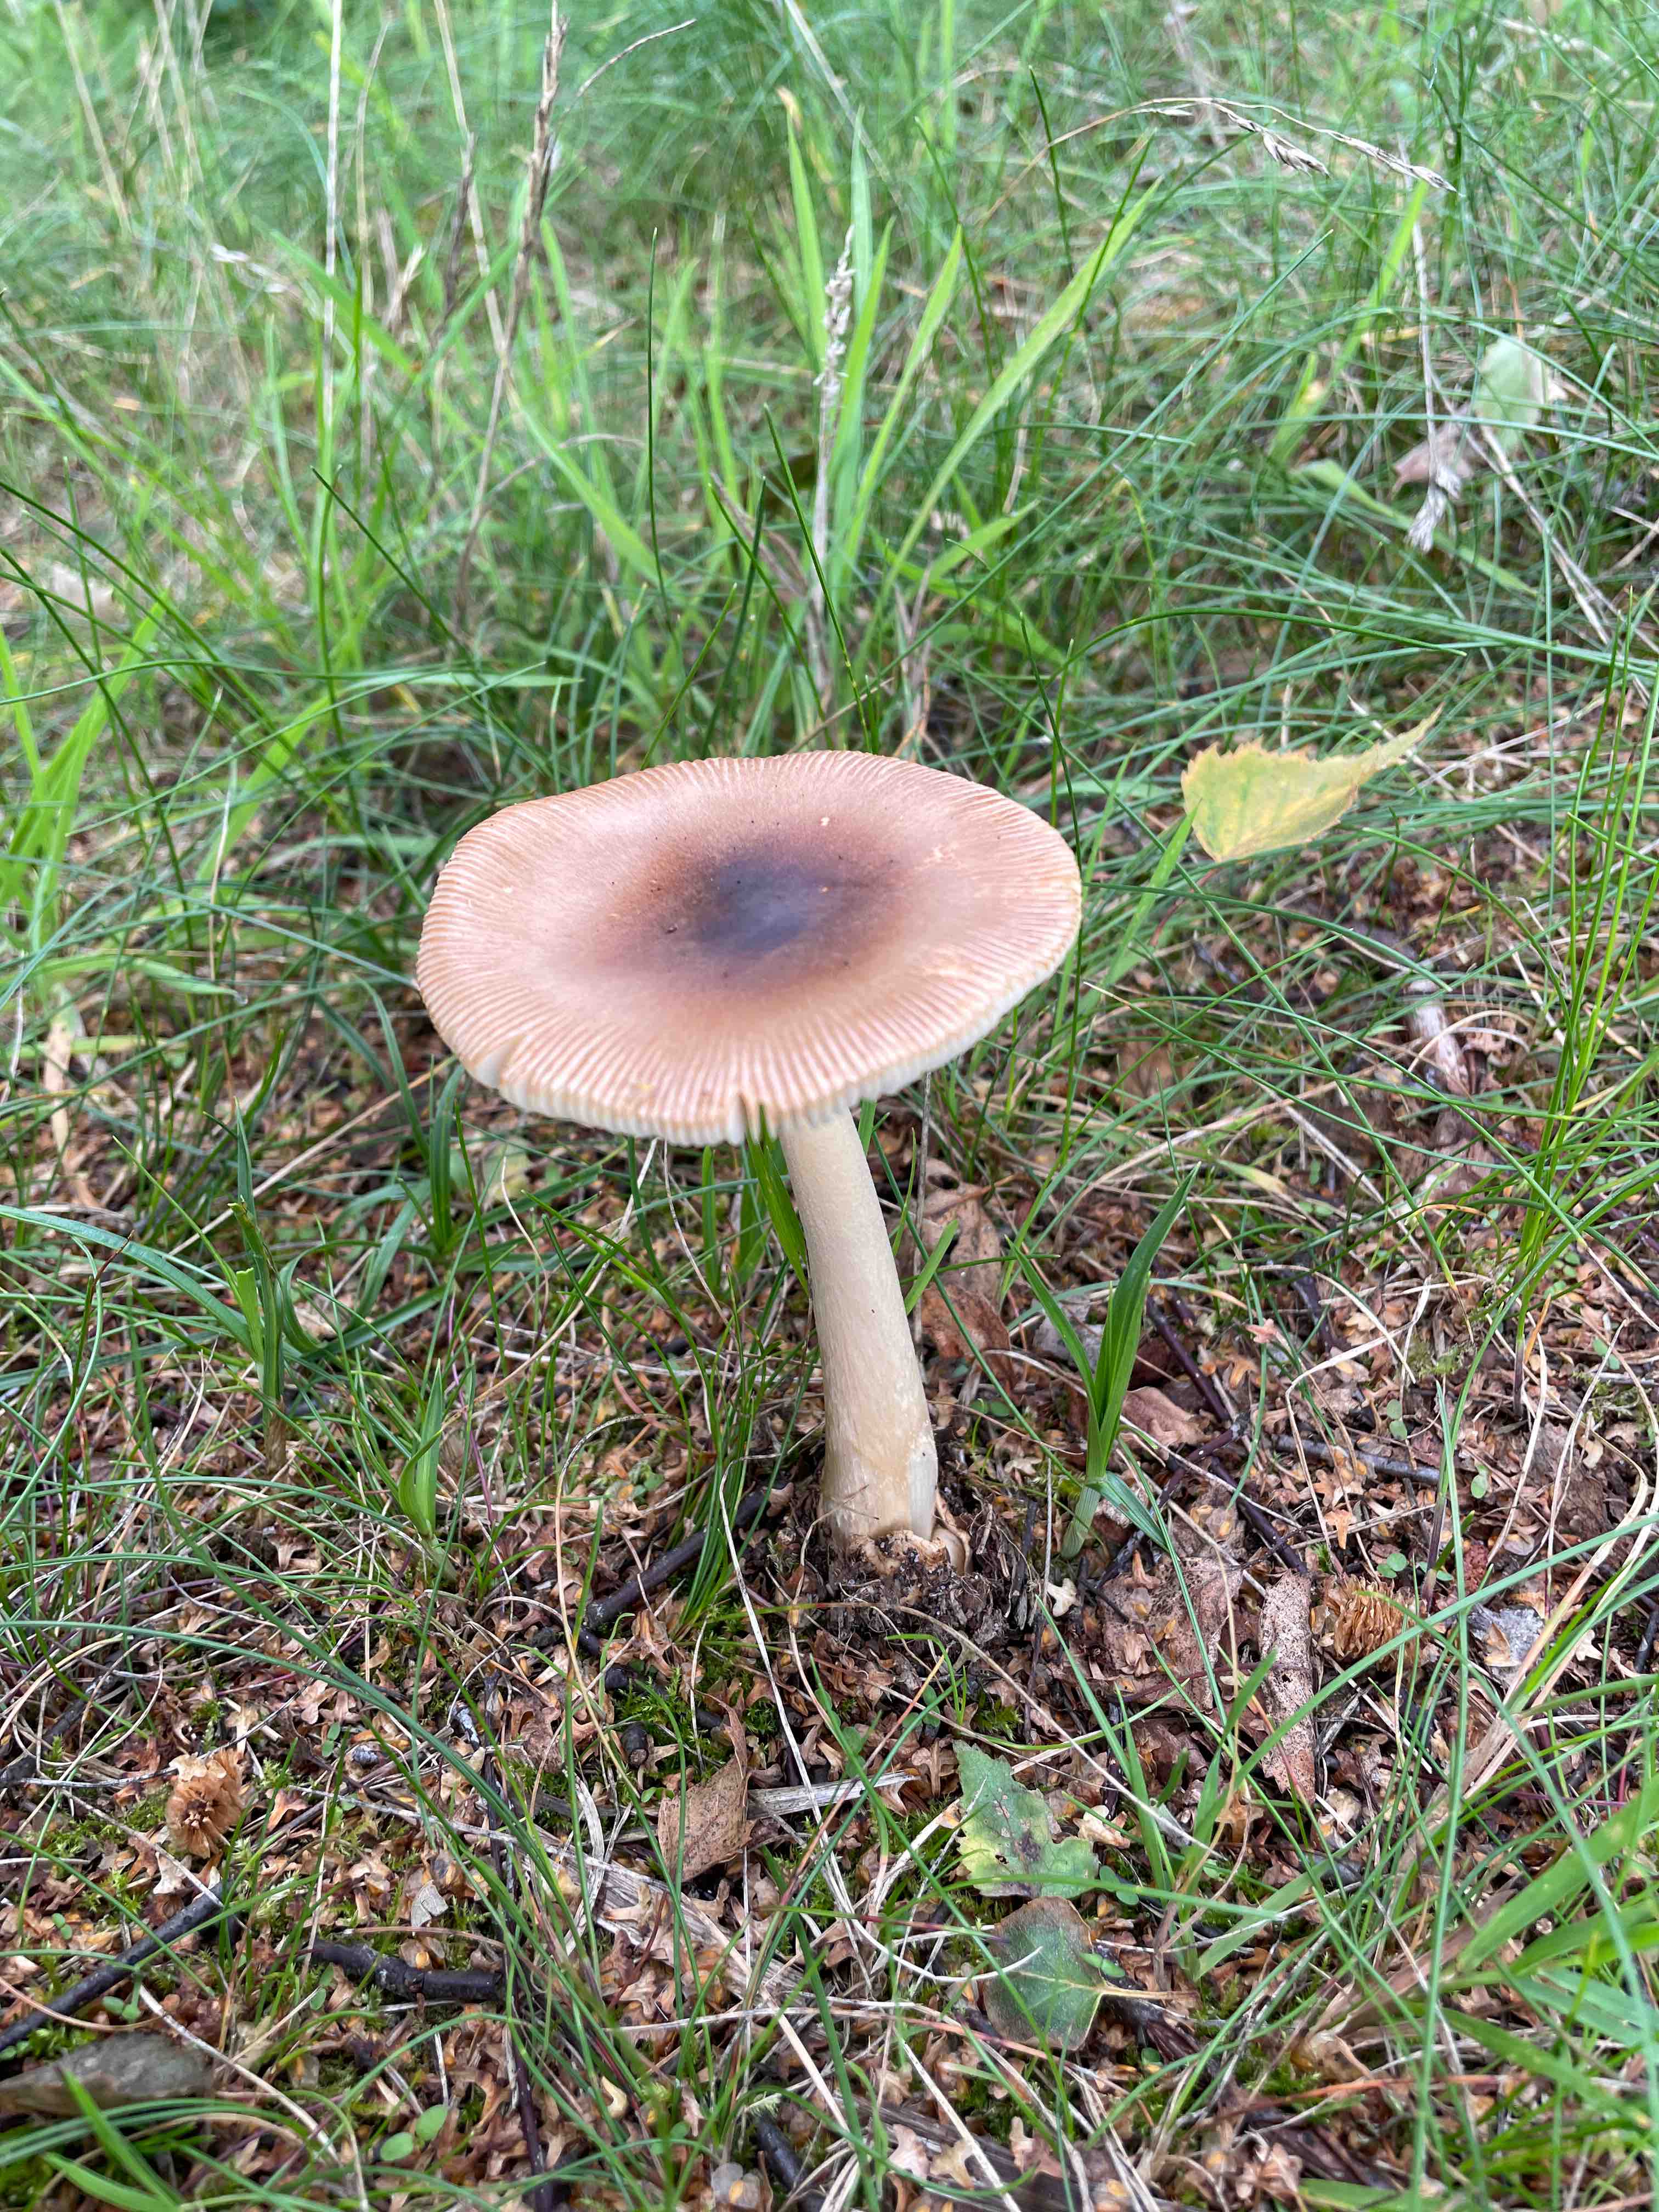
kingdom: Fungi
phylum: Basidiomycota
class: Agaricomycetes
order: Agaricales
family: Amanitaceae
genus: Amanita
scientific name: Amanita fulva
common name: brun kam-fluesvamp
